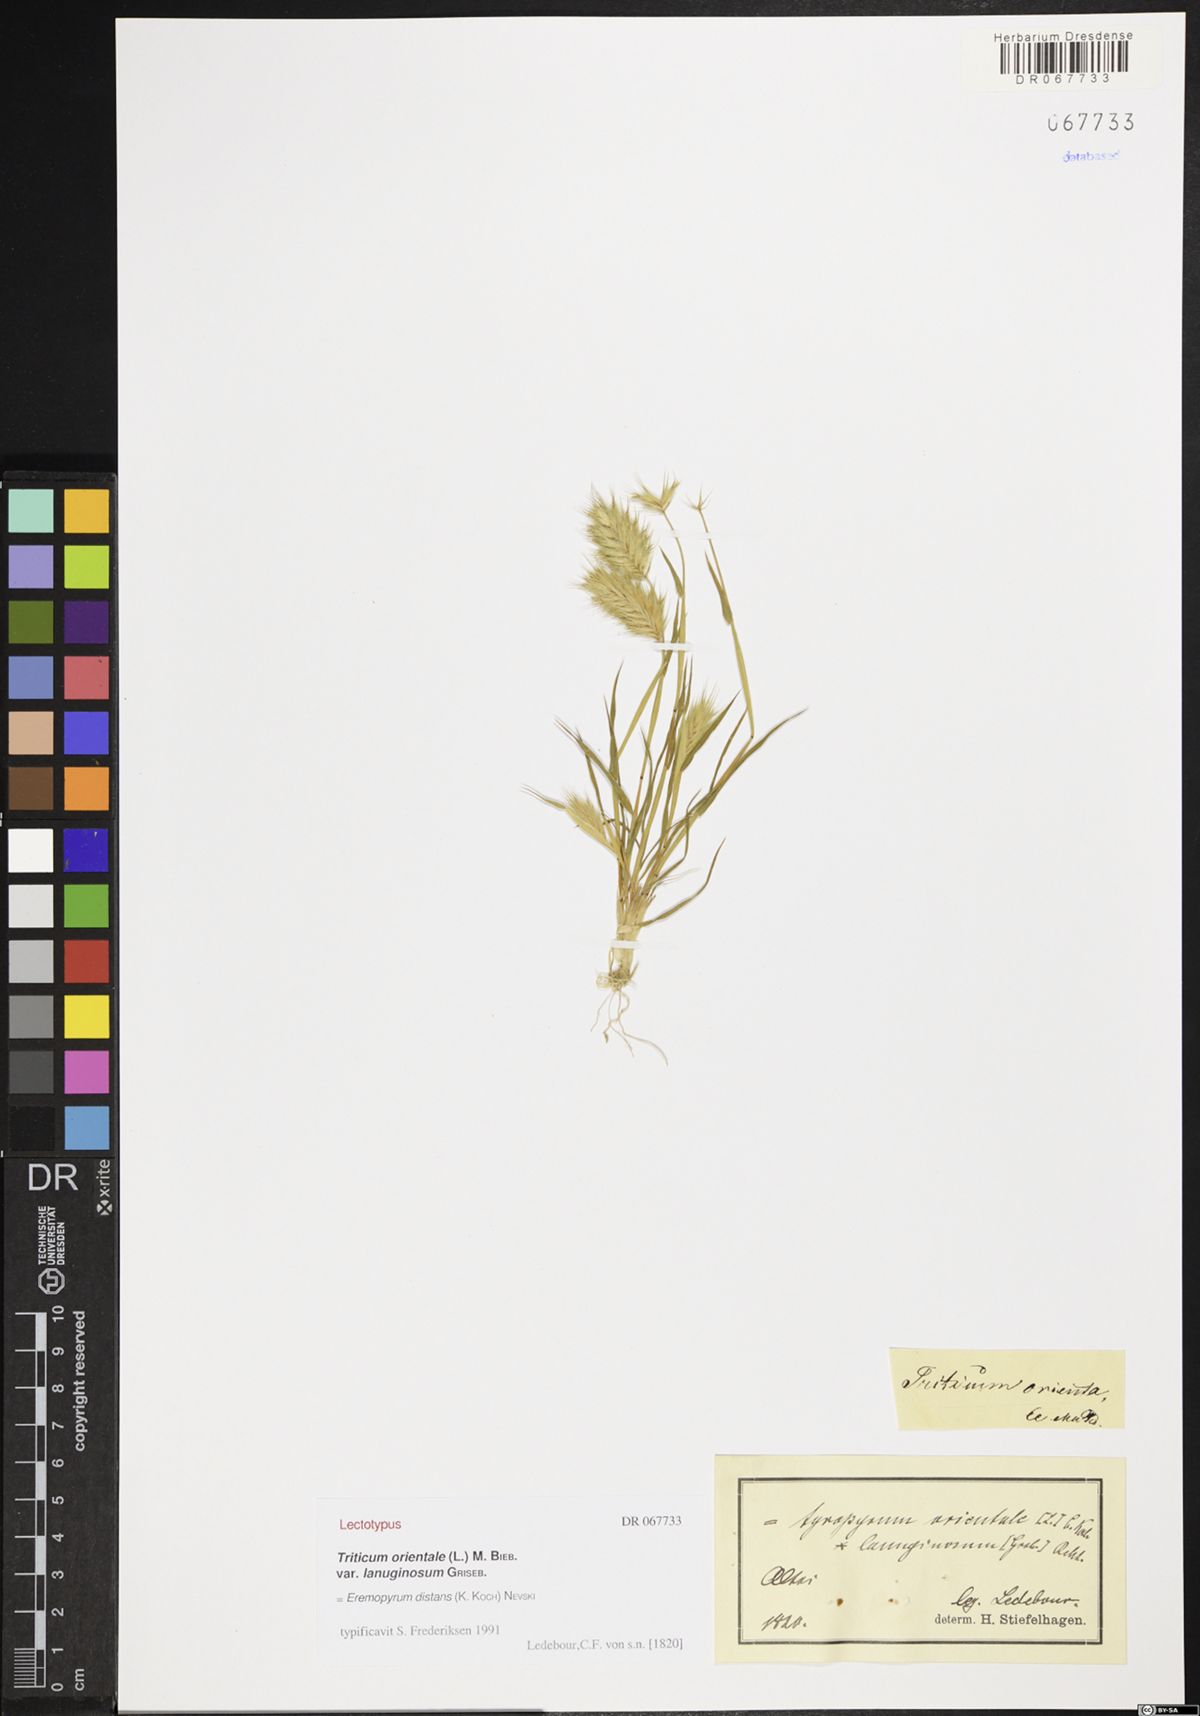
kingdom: Plantae
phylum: Tracheophyta
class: Liliopsida
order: Poales
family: Poaceae
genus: Eremopyrum
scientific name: Eremopyrum distans
